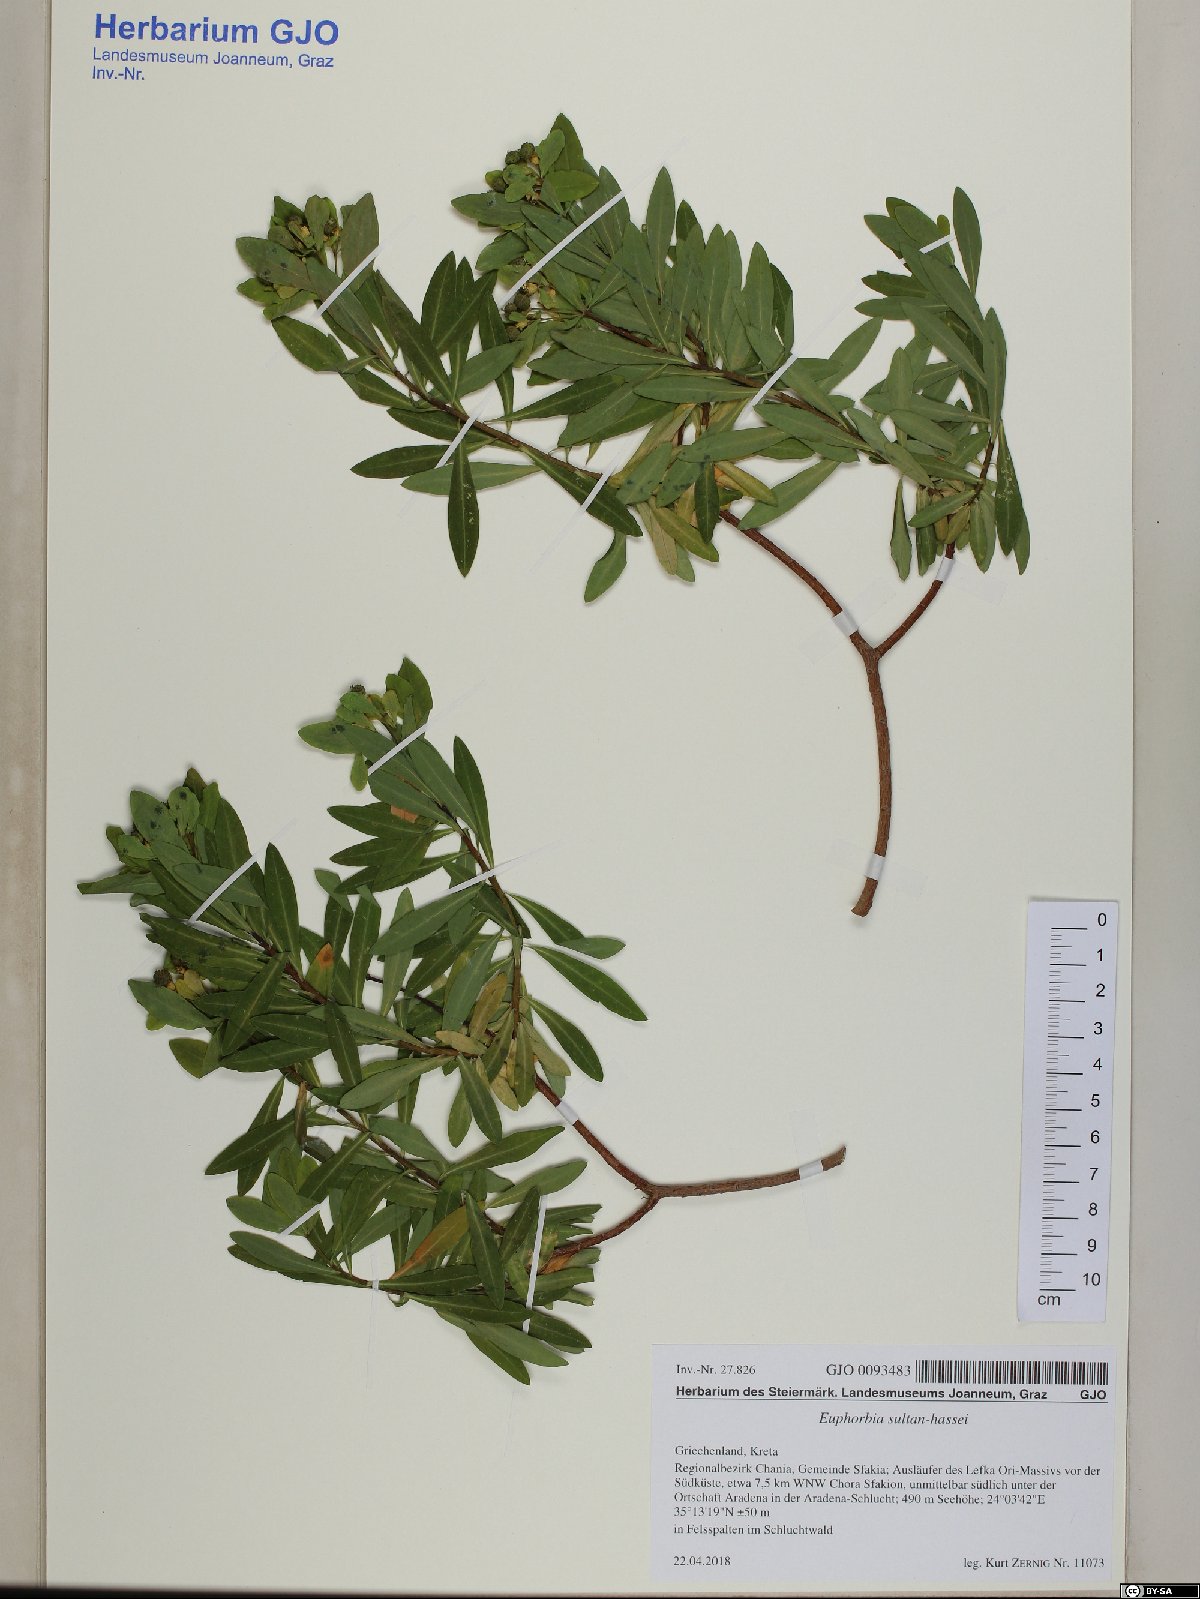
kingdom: Plantae
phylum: Tracheophyta
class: Magnoliopsida
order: Malpighiales
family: Euphorbiaceae
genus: Euphorbia
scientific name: Euphorbia sultan-hassei
